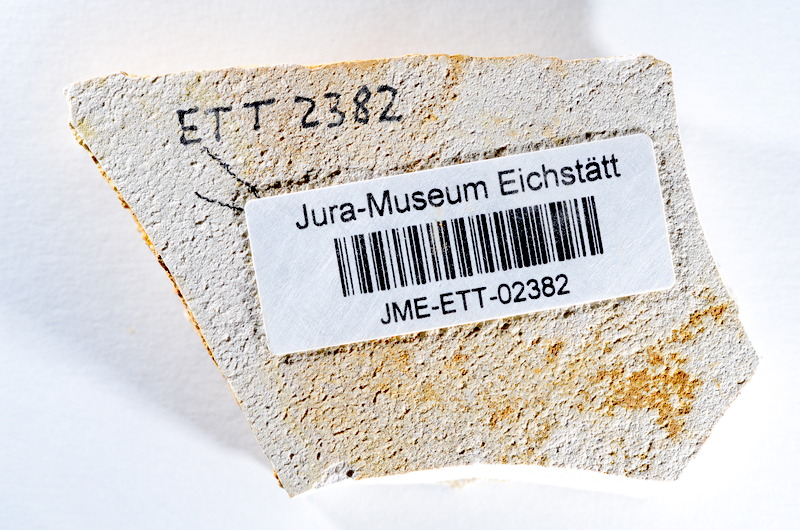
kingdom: Animalia
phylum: Chordata
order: Salmoniformes
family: Orthogonikleithridae
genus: Orthogonikleithrus
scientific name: Orthogonikleithrus hoelli
